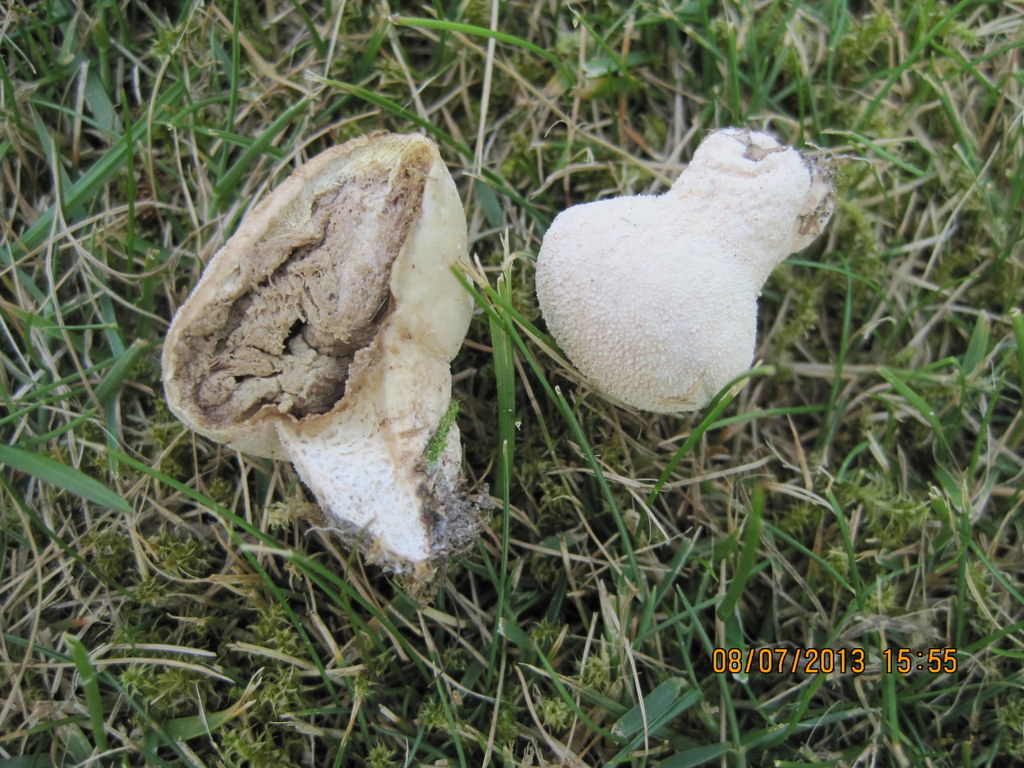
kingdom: Fungi
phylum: Basidiomycota
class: Agaricomycetes
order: Agaricales
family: Lycoperdaceae
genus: Lycoperdon
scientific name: Lycoperdon pratense
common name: flad støvbold
